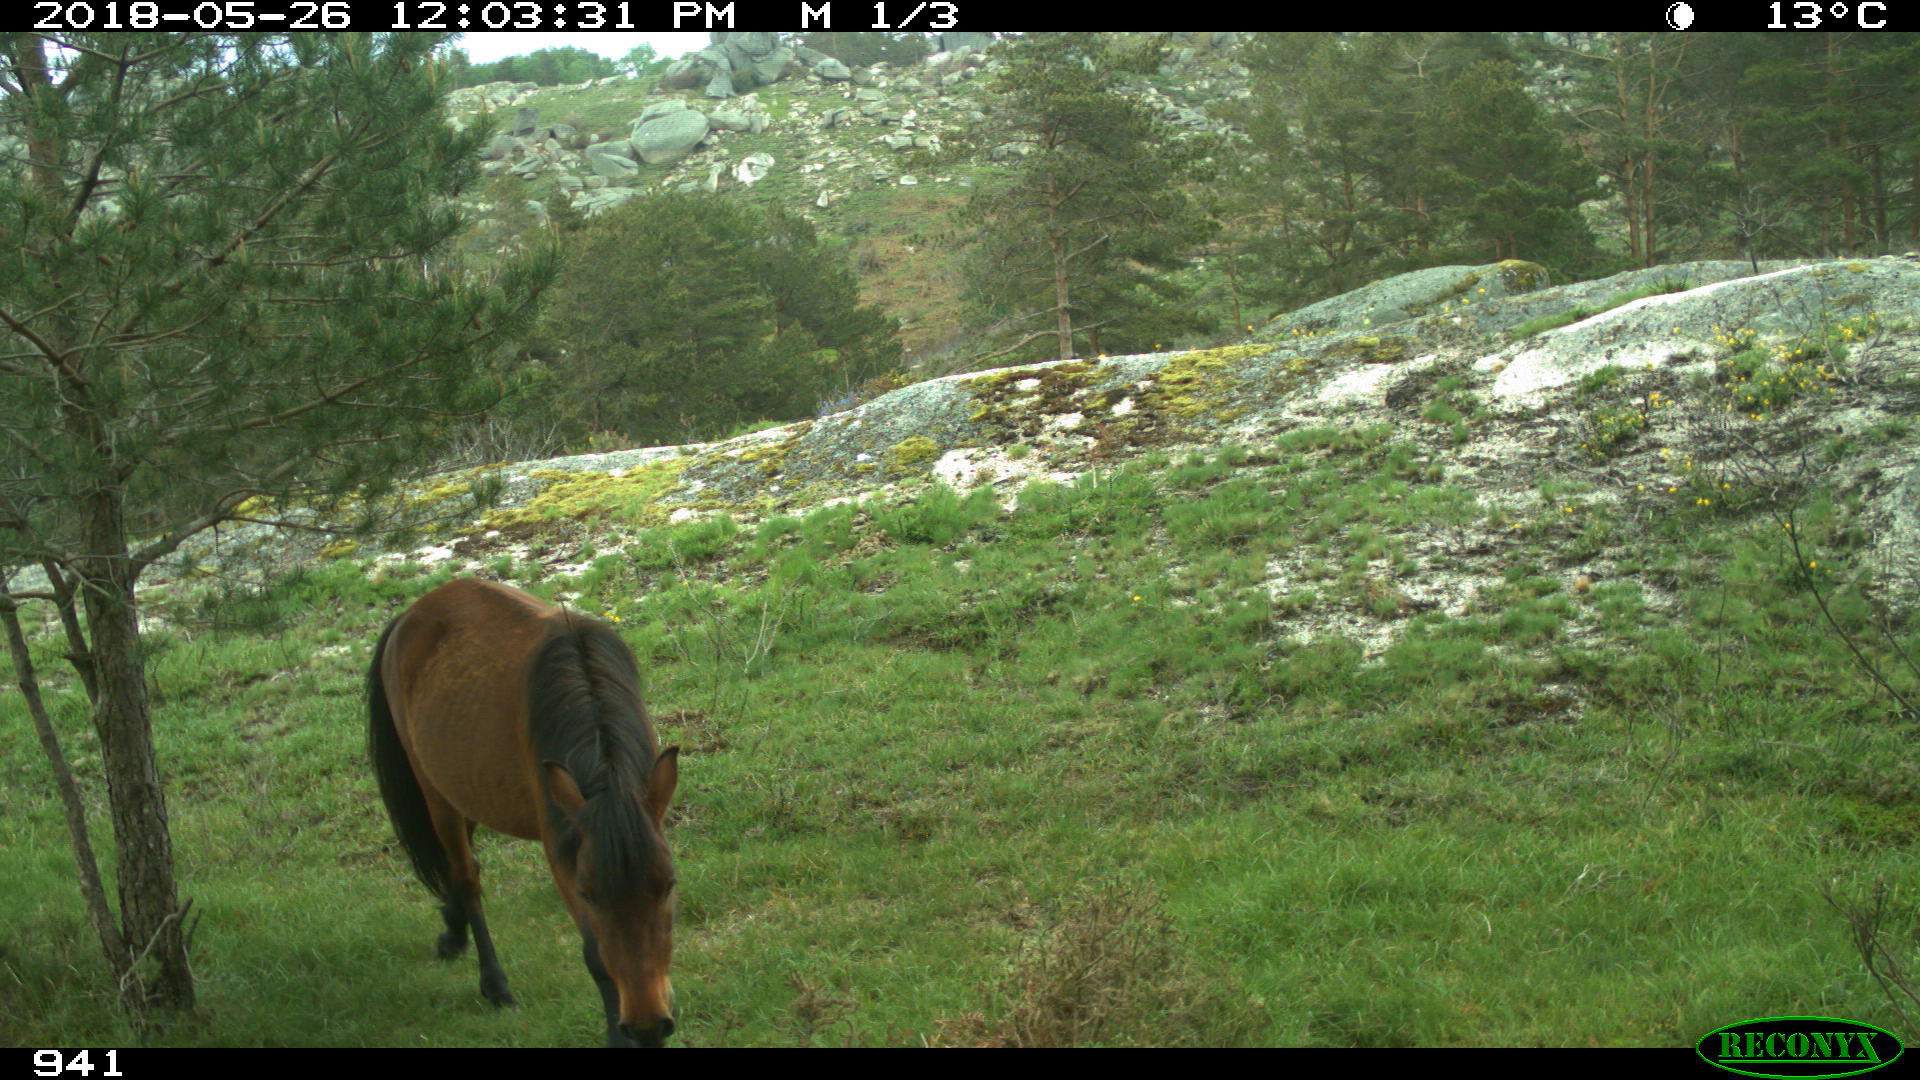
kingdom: Animalia
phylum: Chordata
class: Mammalia
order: Perissodactyla
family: Equidae
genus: Equus
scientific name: Equus caballus
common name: Horse
